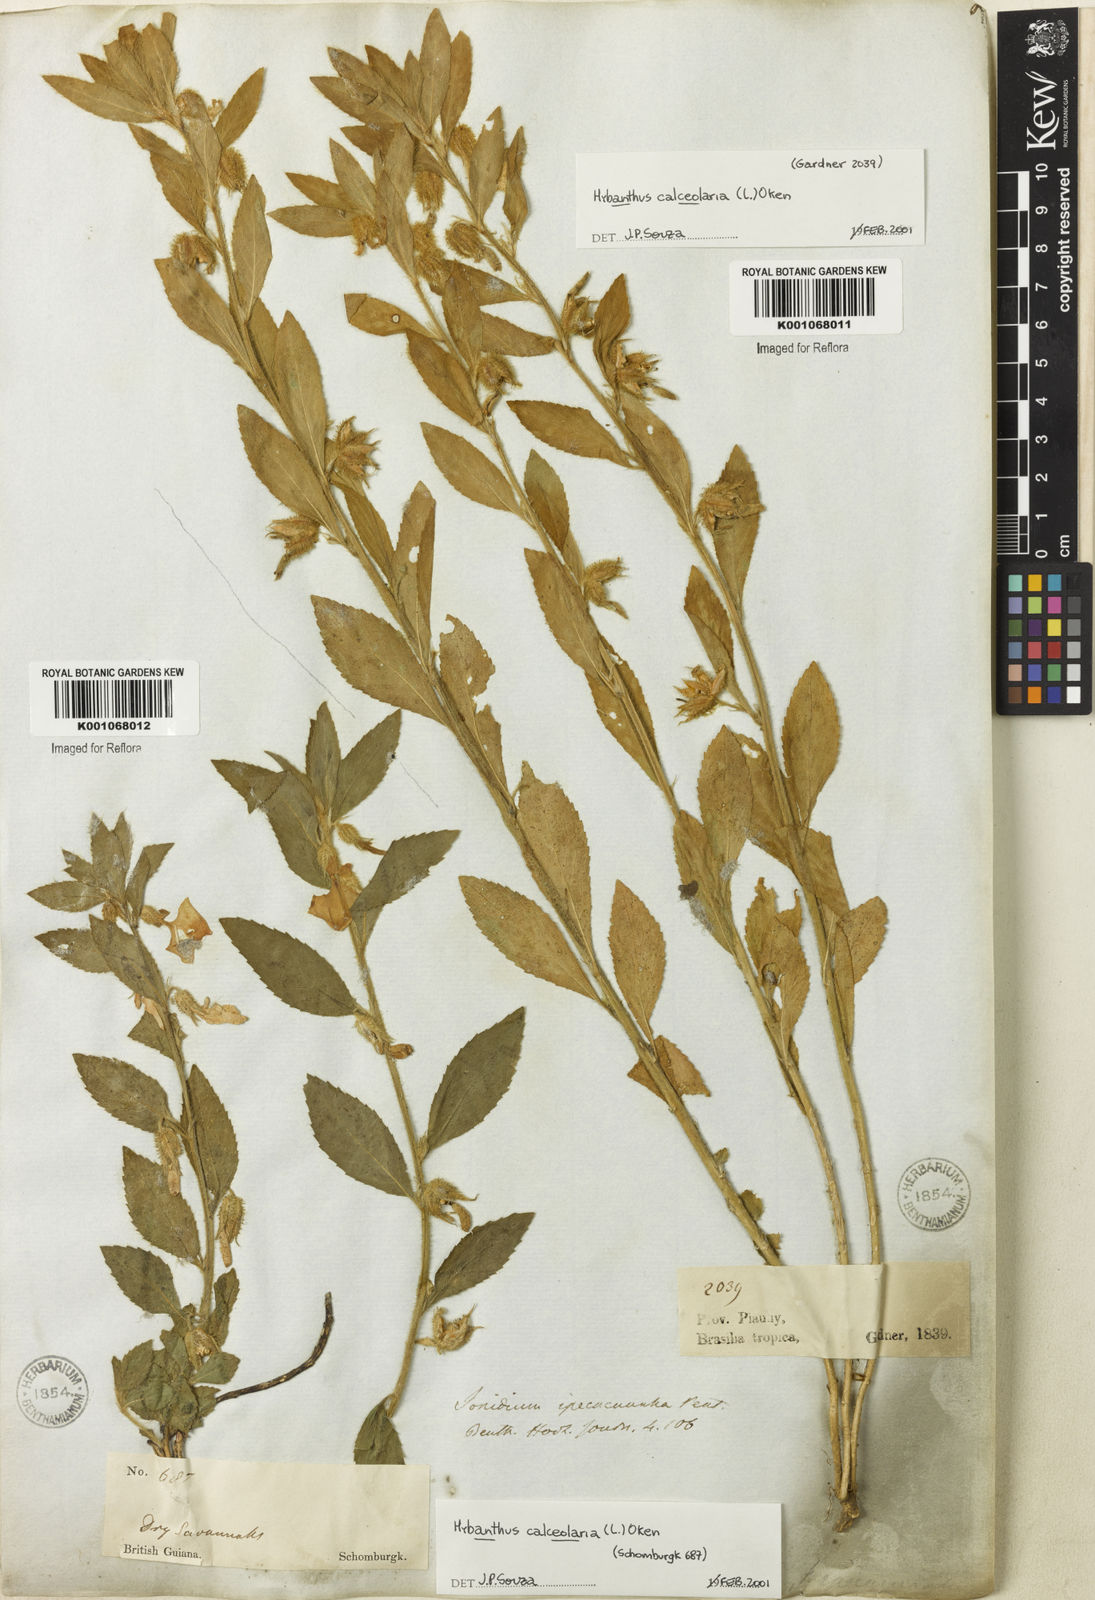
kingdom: Plantae
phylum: Tracheophyta
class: Magnoliopsida
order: Malpighiales
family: Violaceae
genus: Hybanthus
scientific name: Hybanthus
